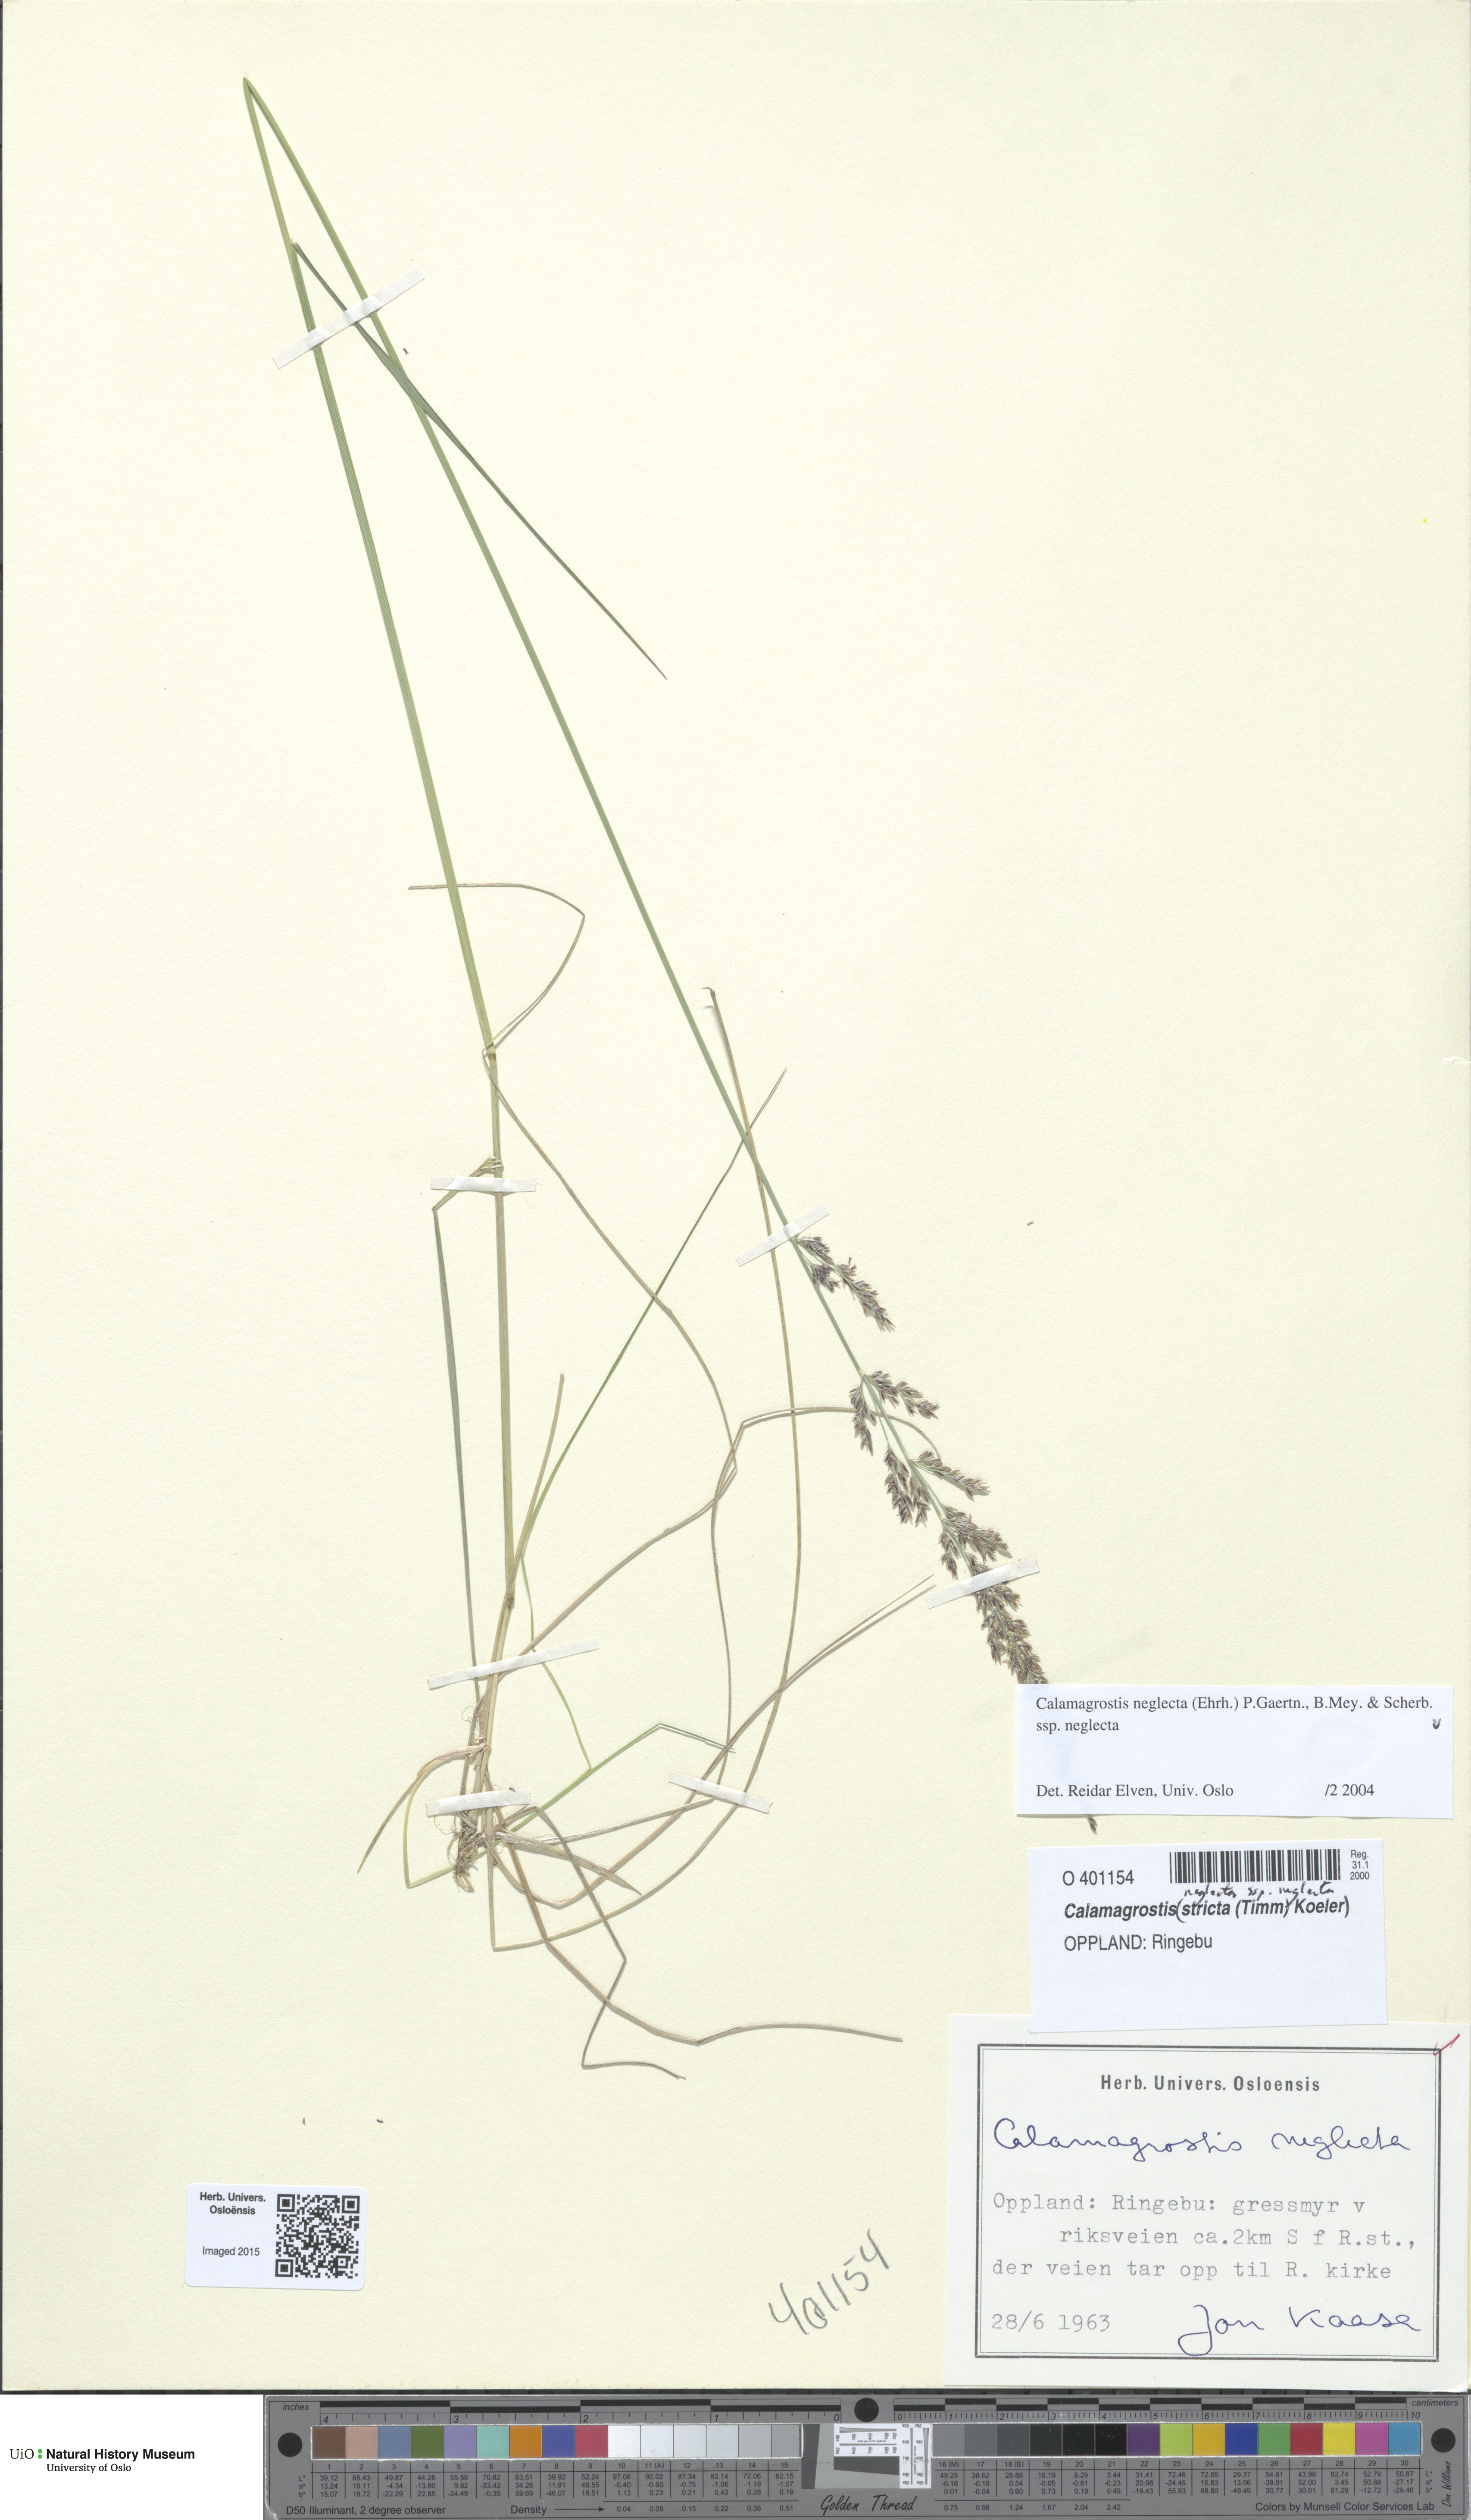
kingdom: Plantae
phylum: Tracheophyta
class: Liliopsida
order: Poales
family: Poaceae
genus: Achnatherum
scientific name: Achnatherum calamagrostis
